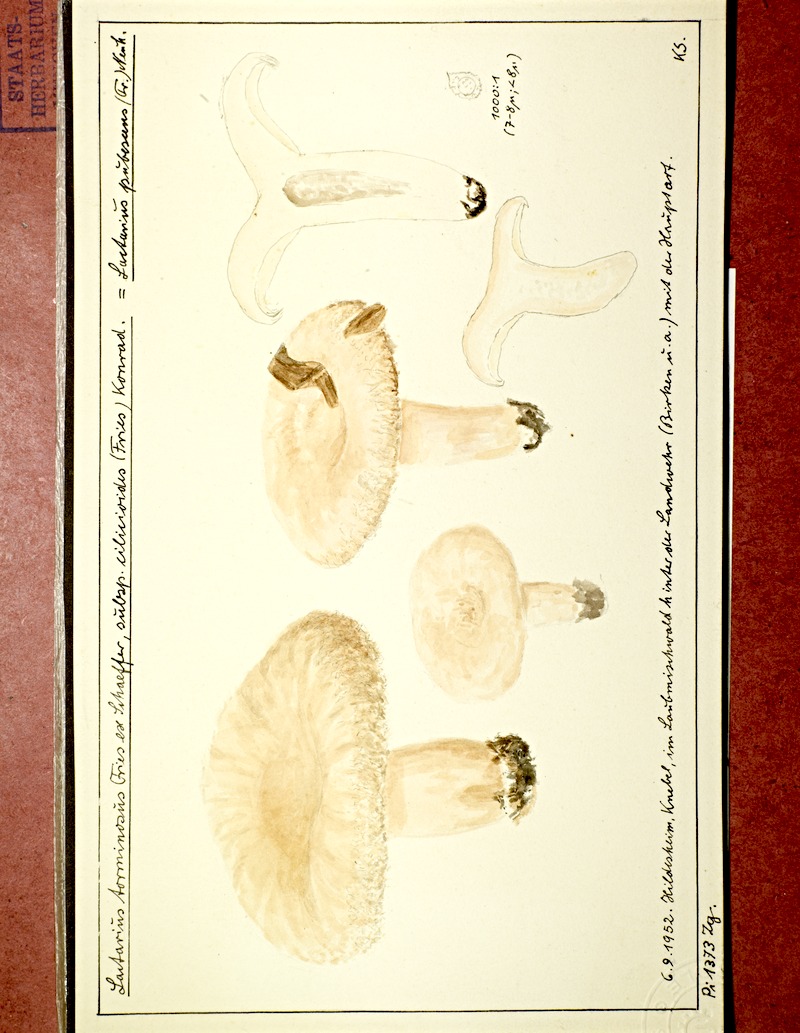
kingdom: Fungi
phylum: Basidiomycota
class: Agaricomycetes
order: Russulales
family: Russulaceae
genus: Lactarius
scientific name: Lactarius pubescens
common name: Bearded milkcap
